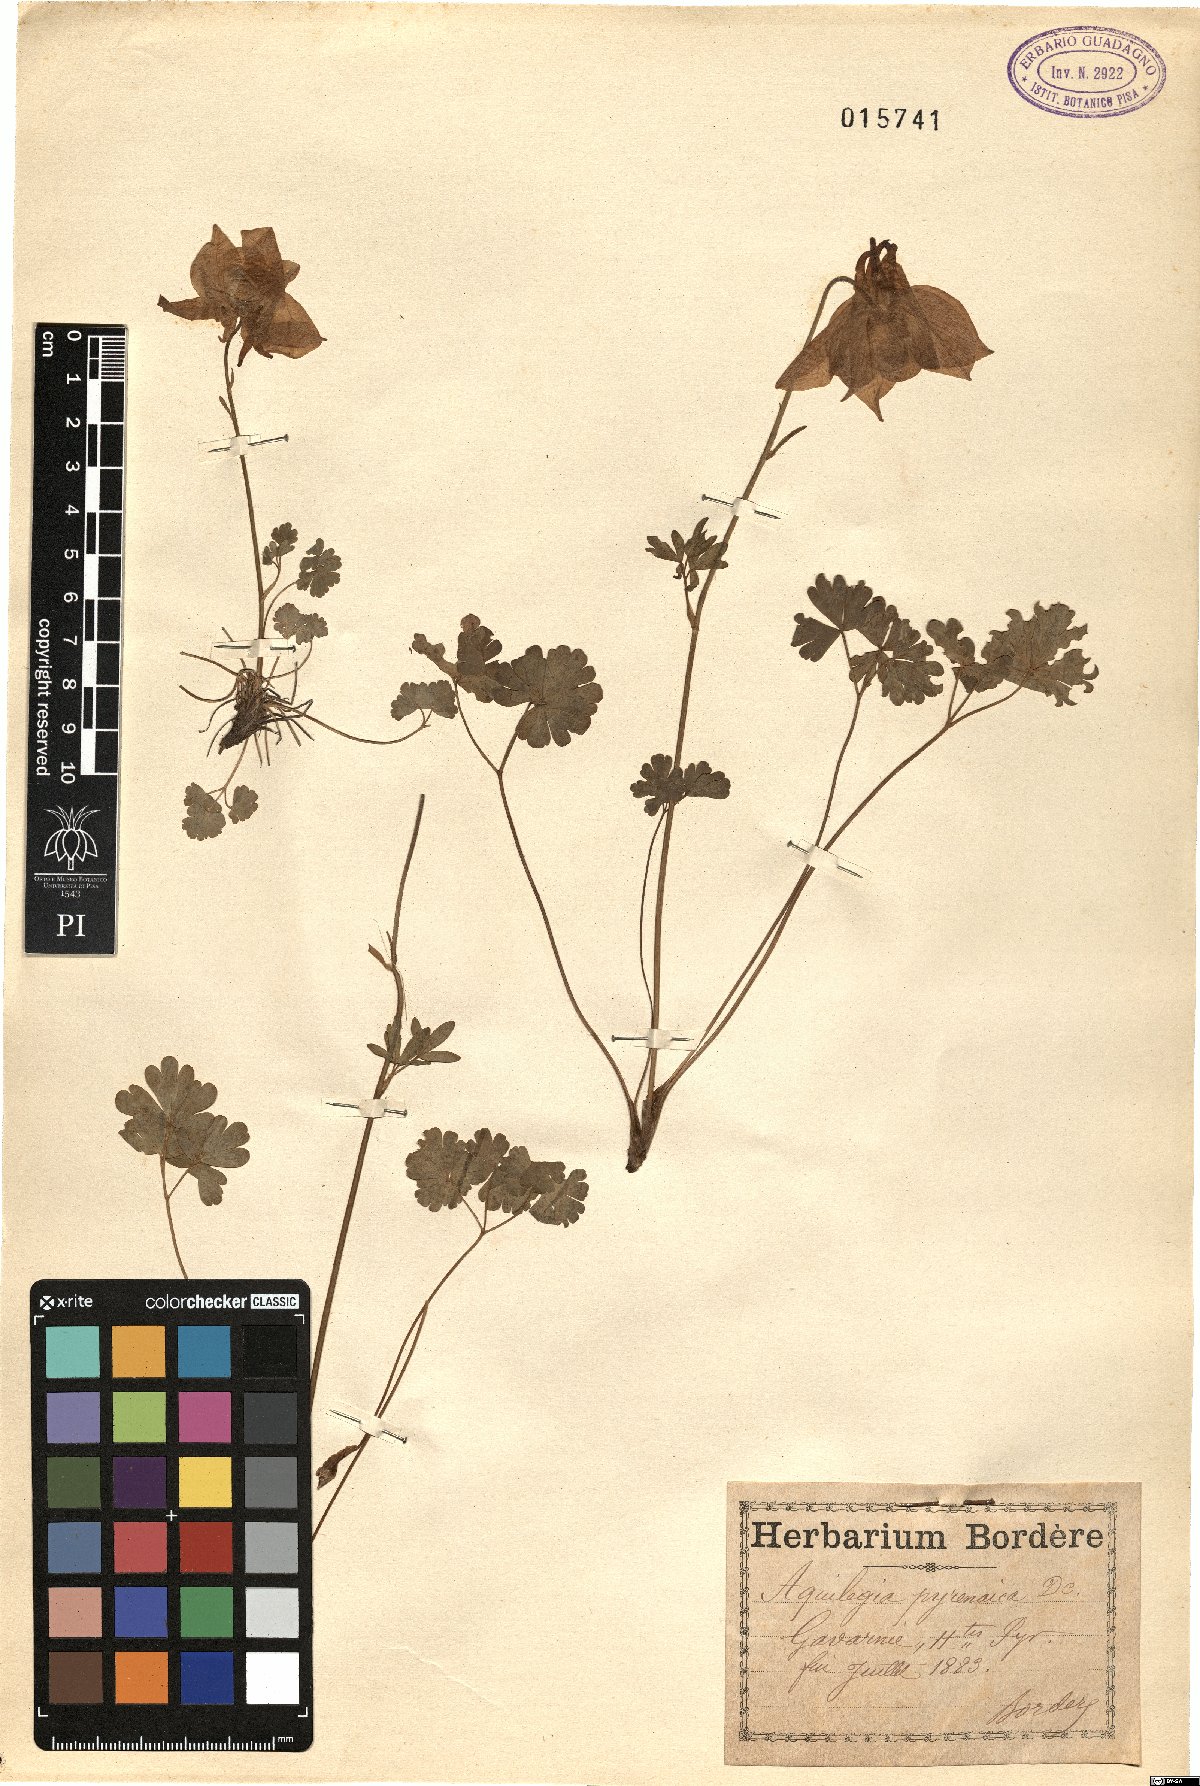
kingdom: Plantae
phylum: Tracheophyta
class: Magnoliopsida
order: Ranunculales
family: Ranunculaceae
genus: Aquilegia
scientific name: Aquilegia pyrenaica
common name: Pyrenean columbine
